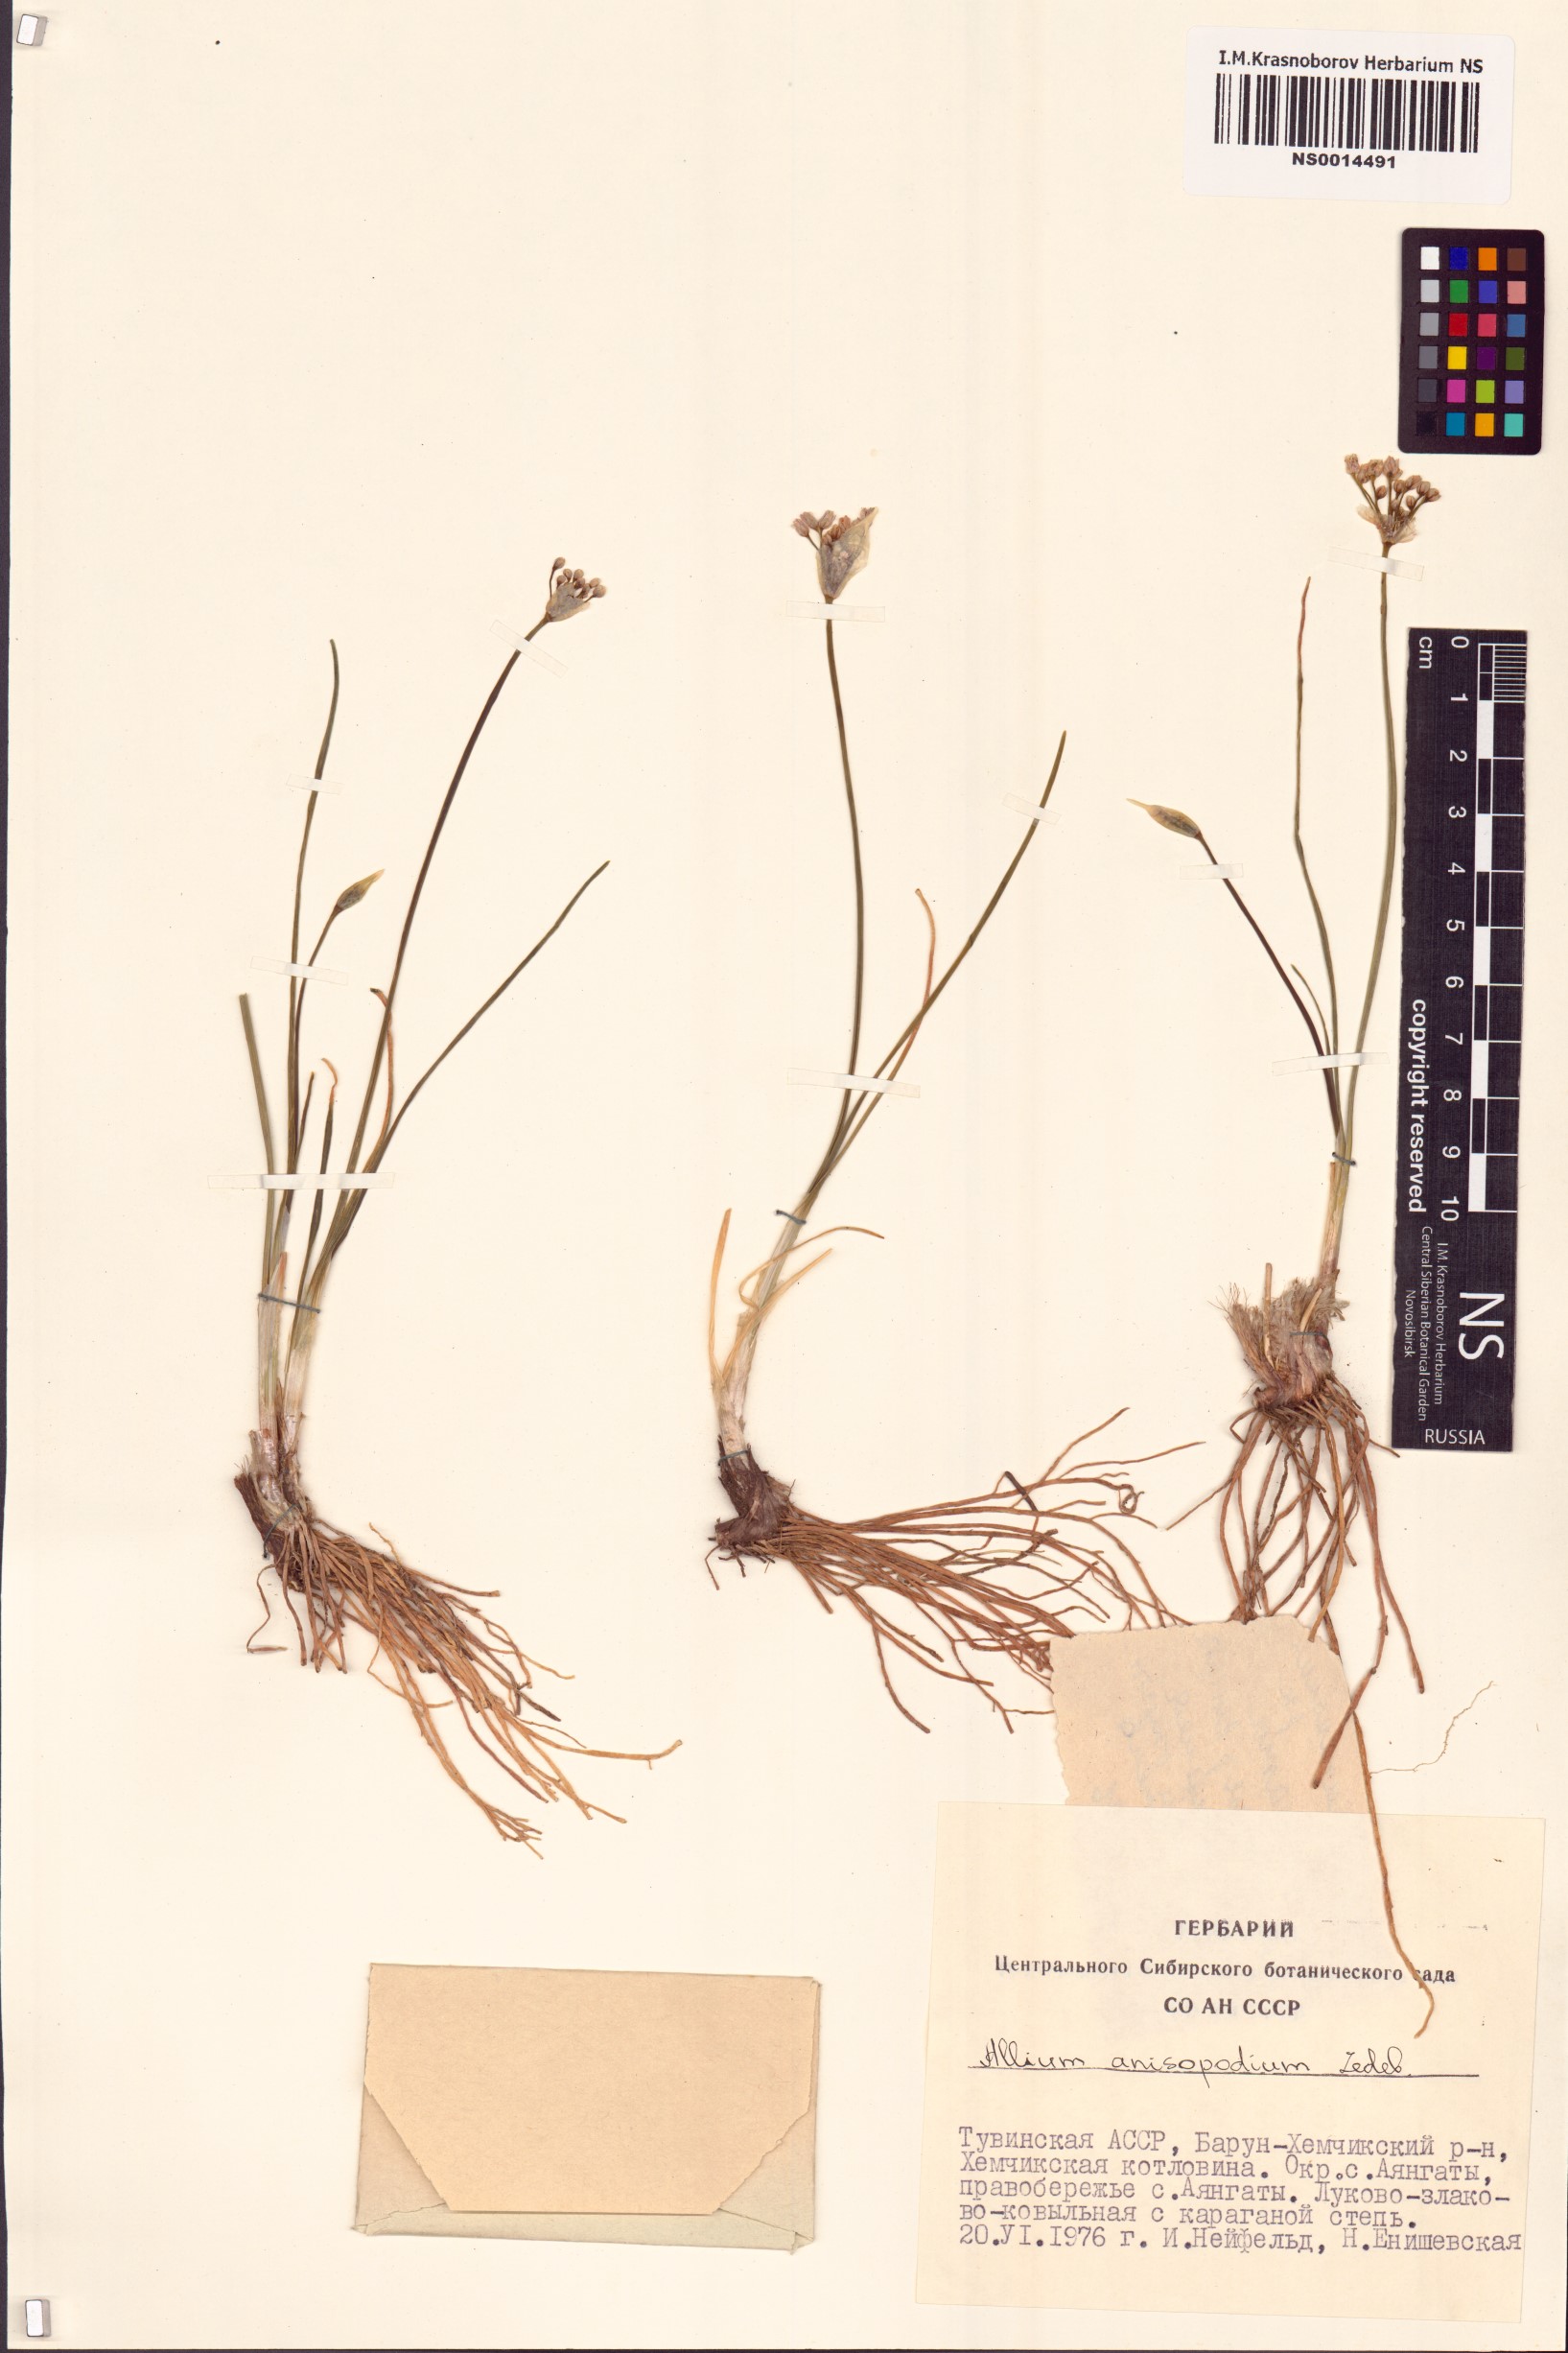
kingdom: Plantae
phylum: Tracheophyta
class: Liliopsida
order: Asparagales
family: Amaryllidaceae
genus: Allium
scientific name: Allium anisopodium
